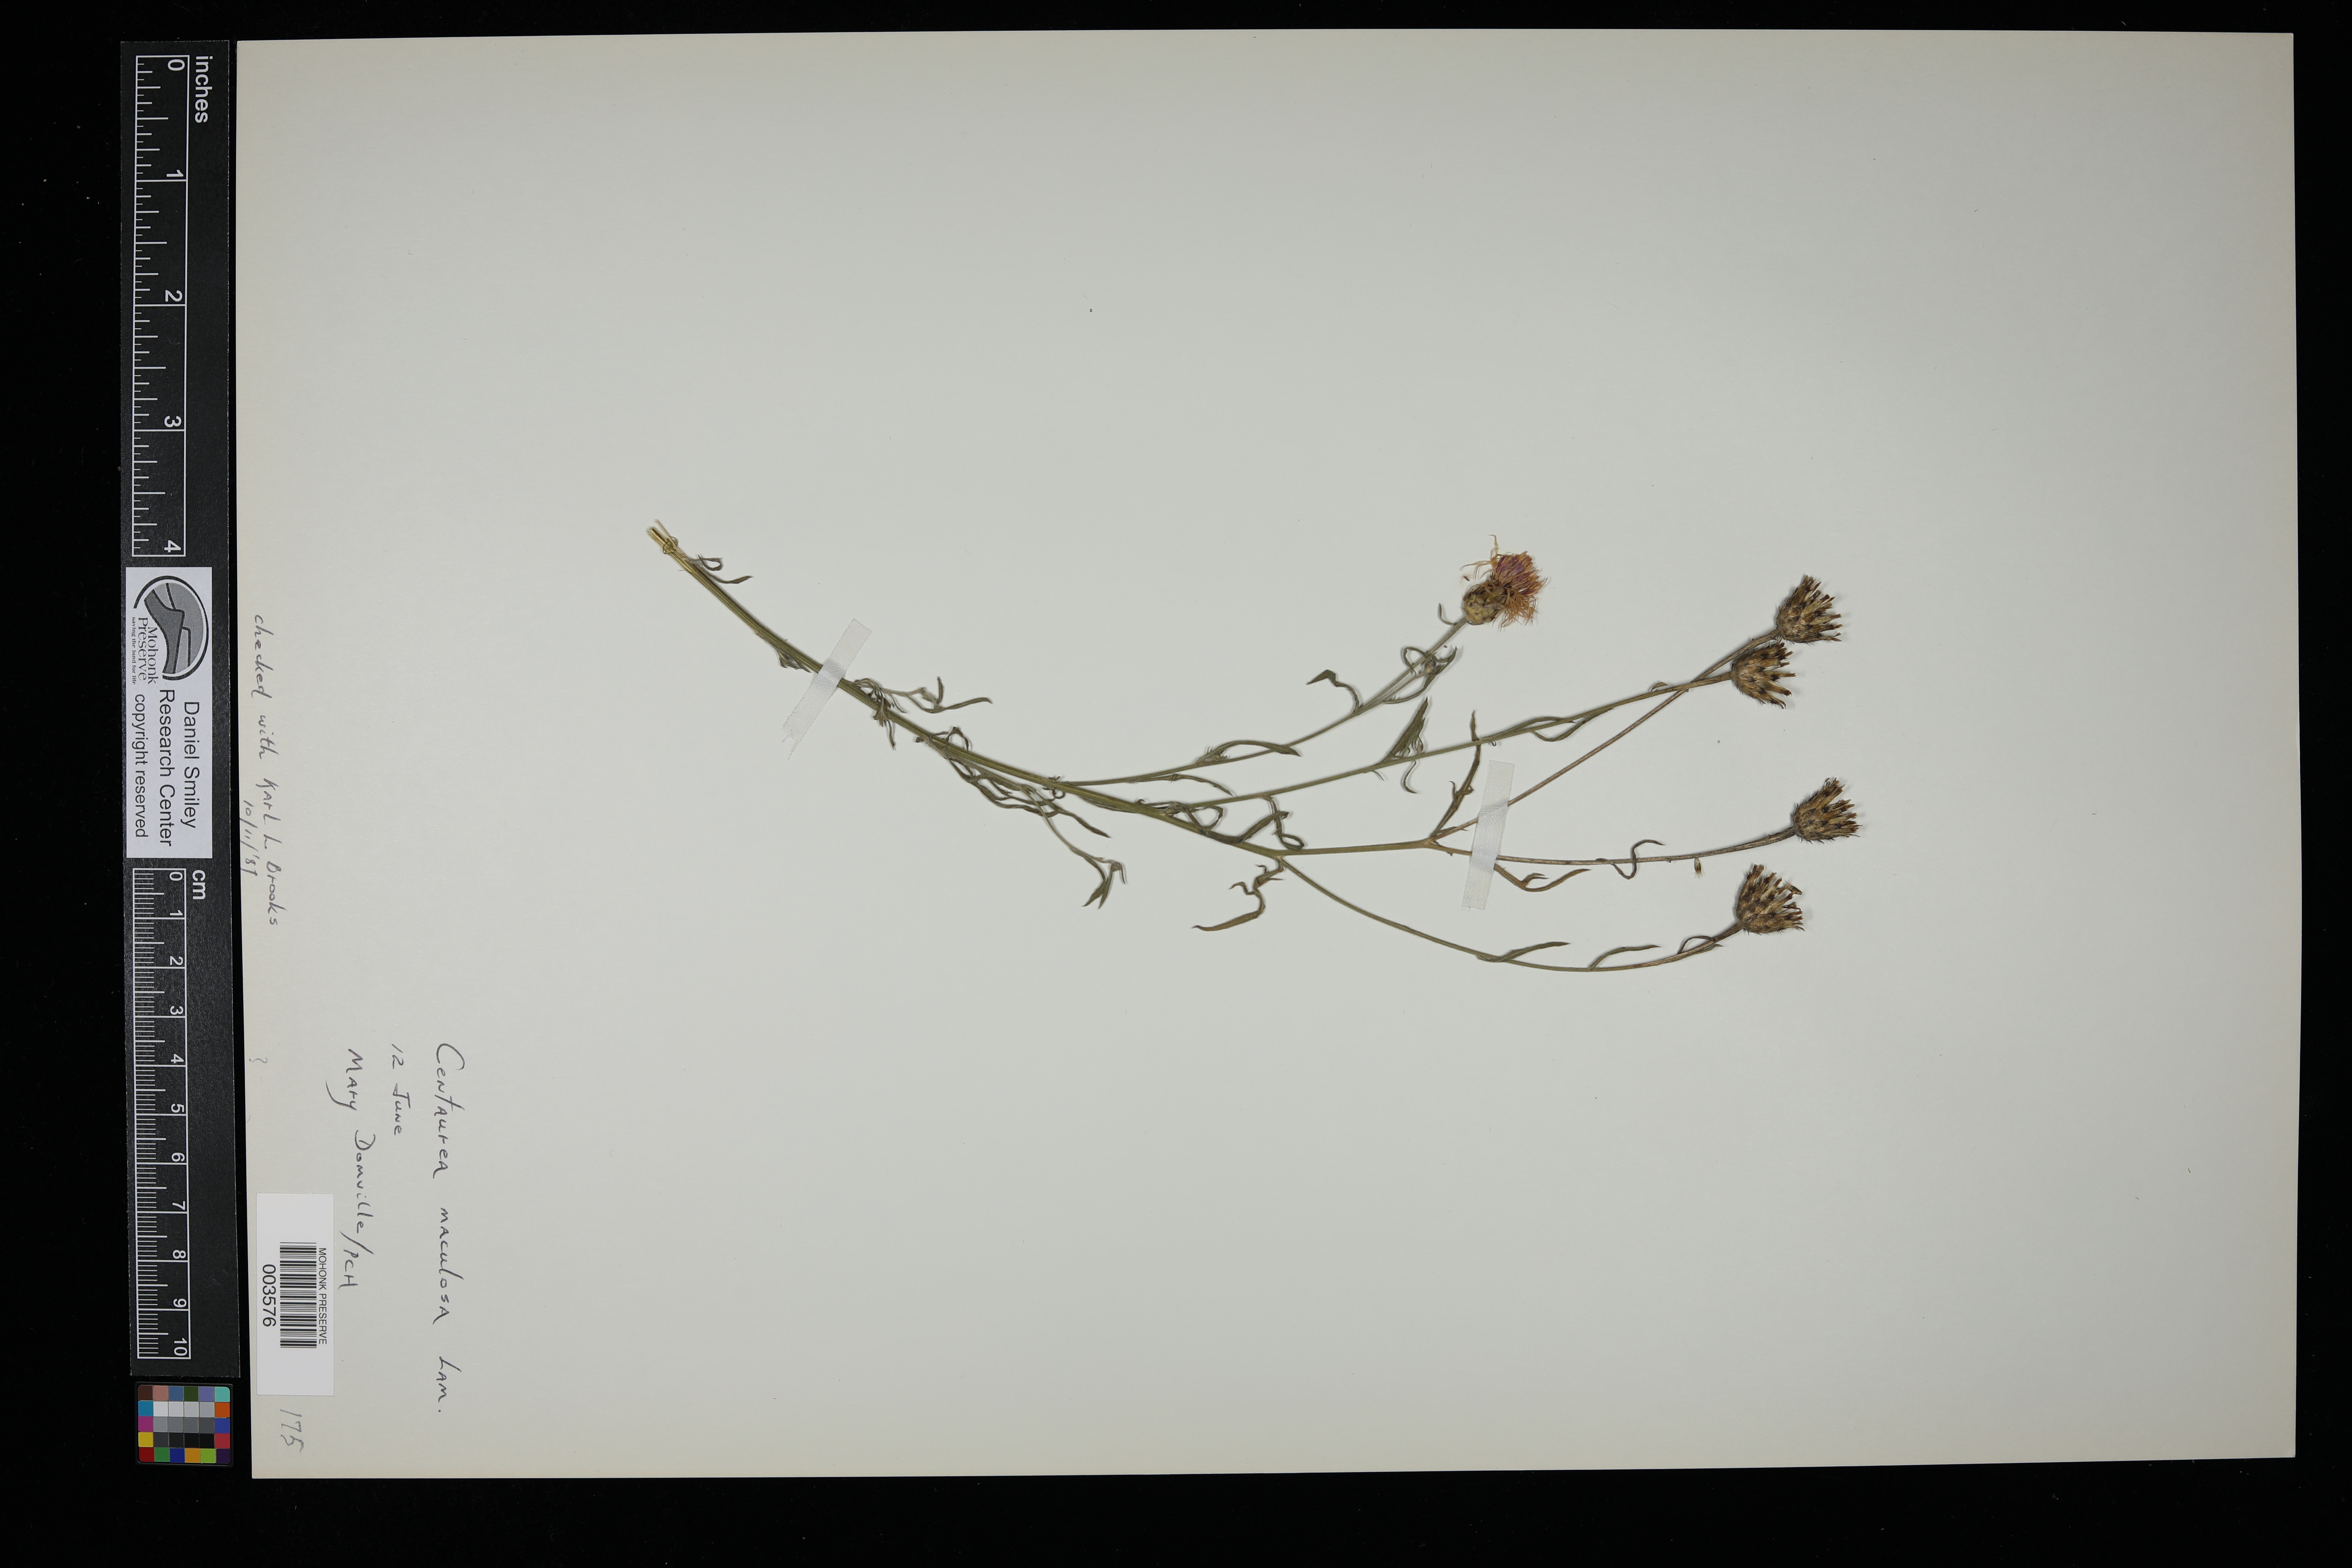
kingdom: Plantae
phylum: Tracheophyta
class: Magnoliopsida
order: Asterales
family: Asteraceae
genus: Centaurea
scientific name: Centaurea stoebe
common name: Spotted knapweed
